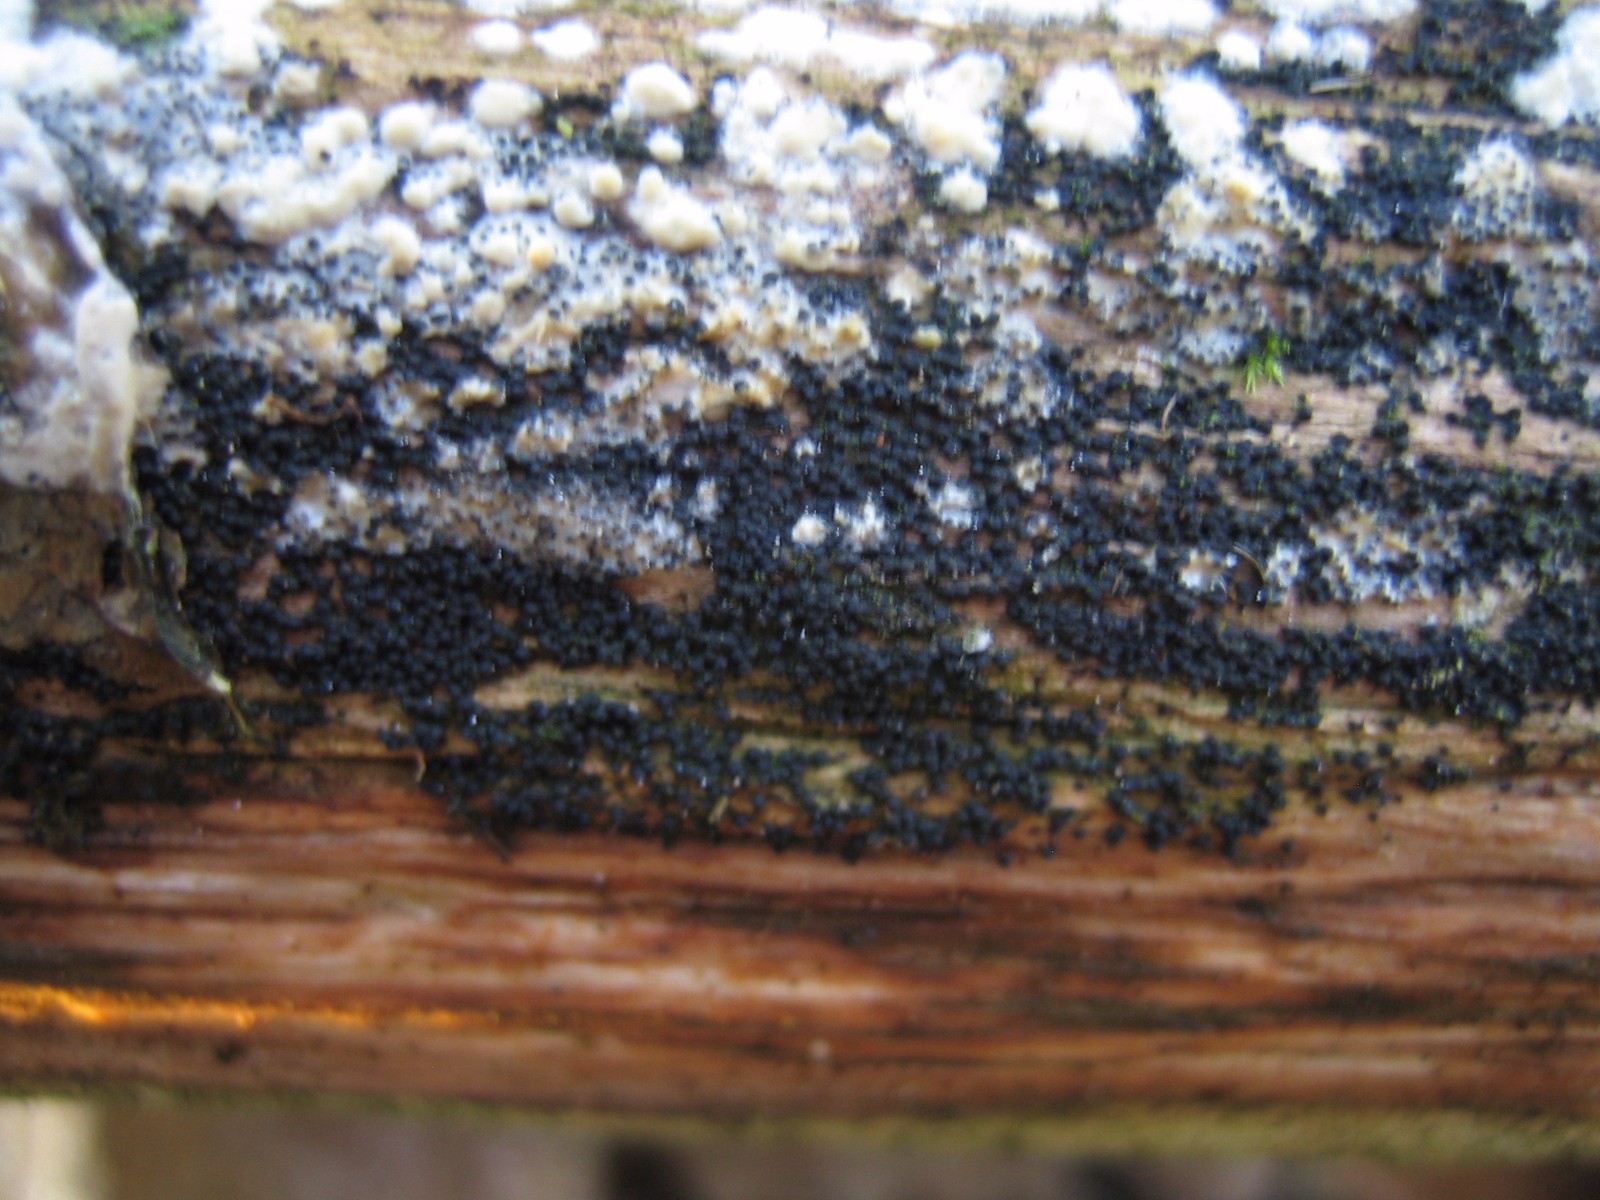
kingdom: Fungi
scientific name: Fungi
